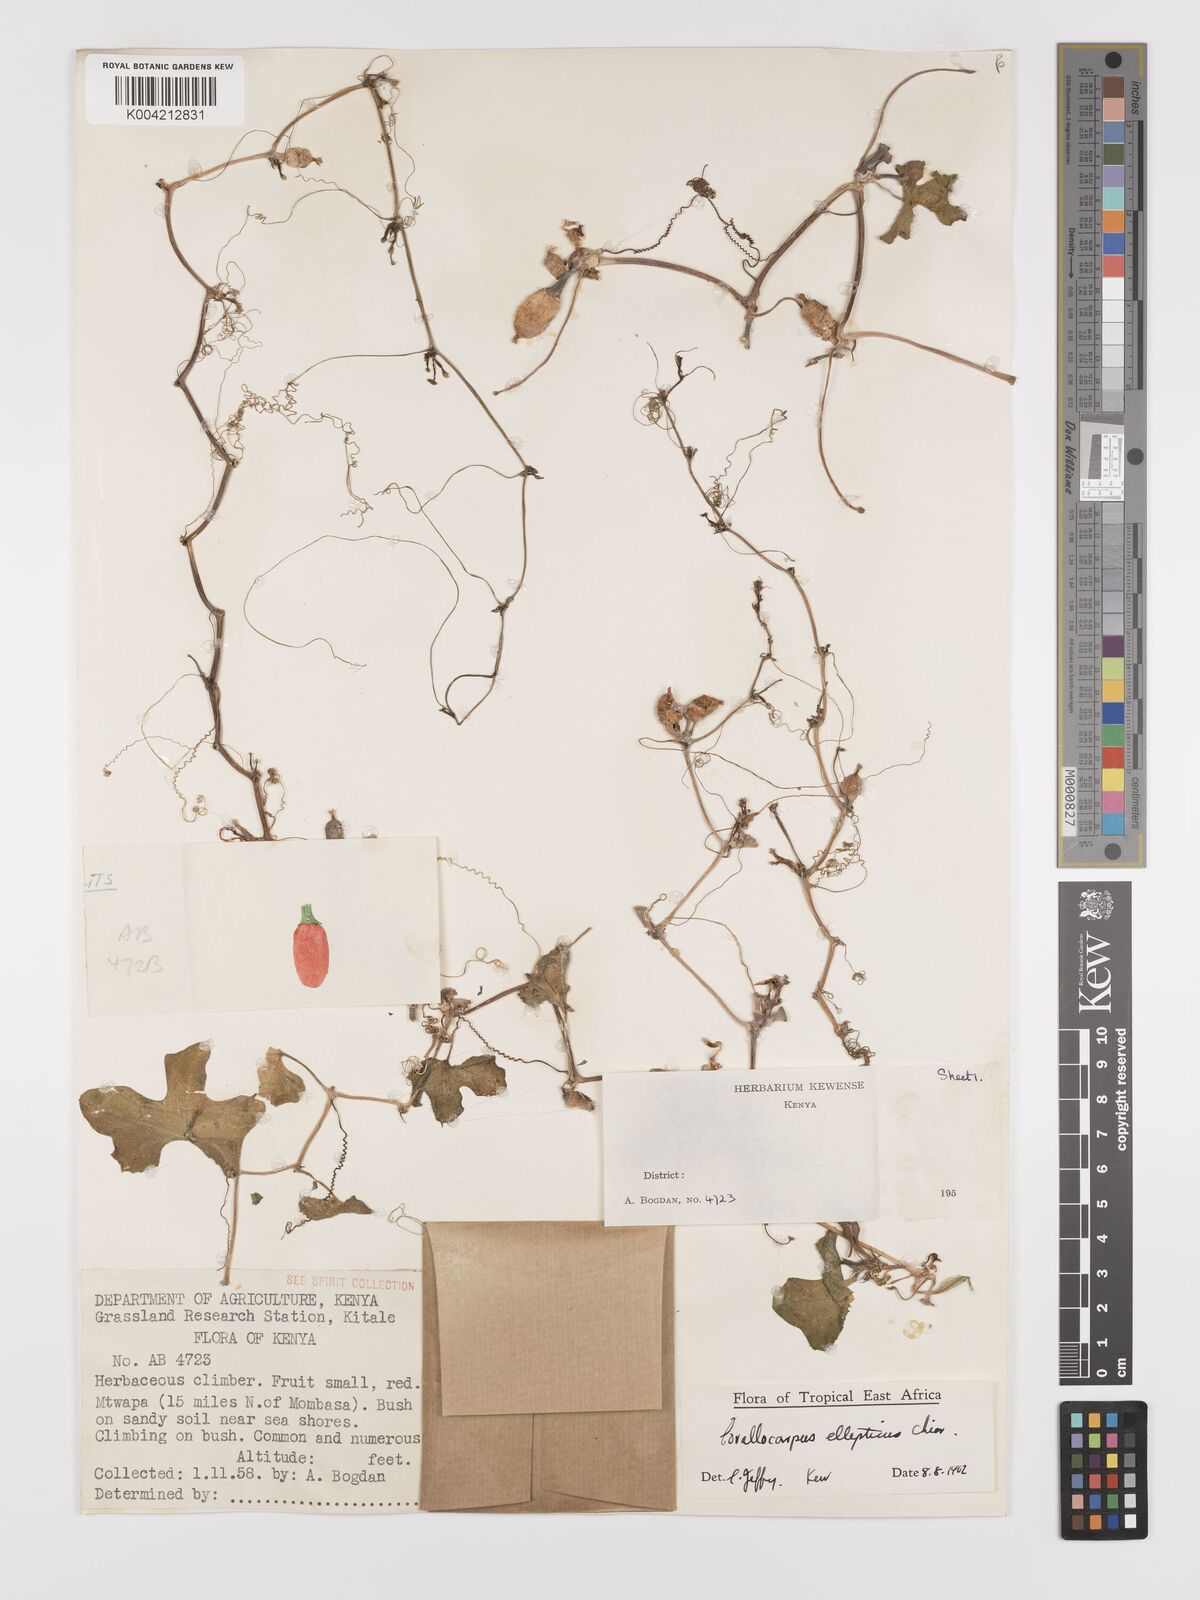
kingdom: Plantae
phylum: Tracheophyta
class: Magnoliopsida
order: Cucurbitales
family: Cucurbitaceae
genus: Corallocarpus
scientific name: Corallocarpus ellipticus
